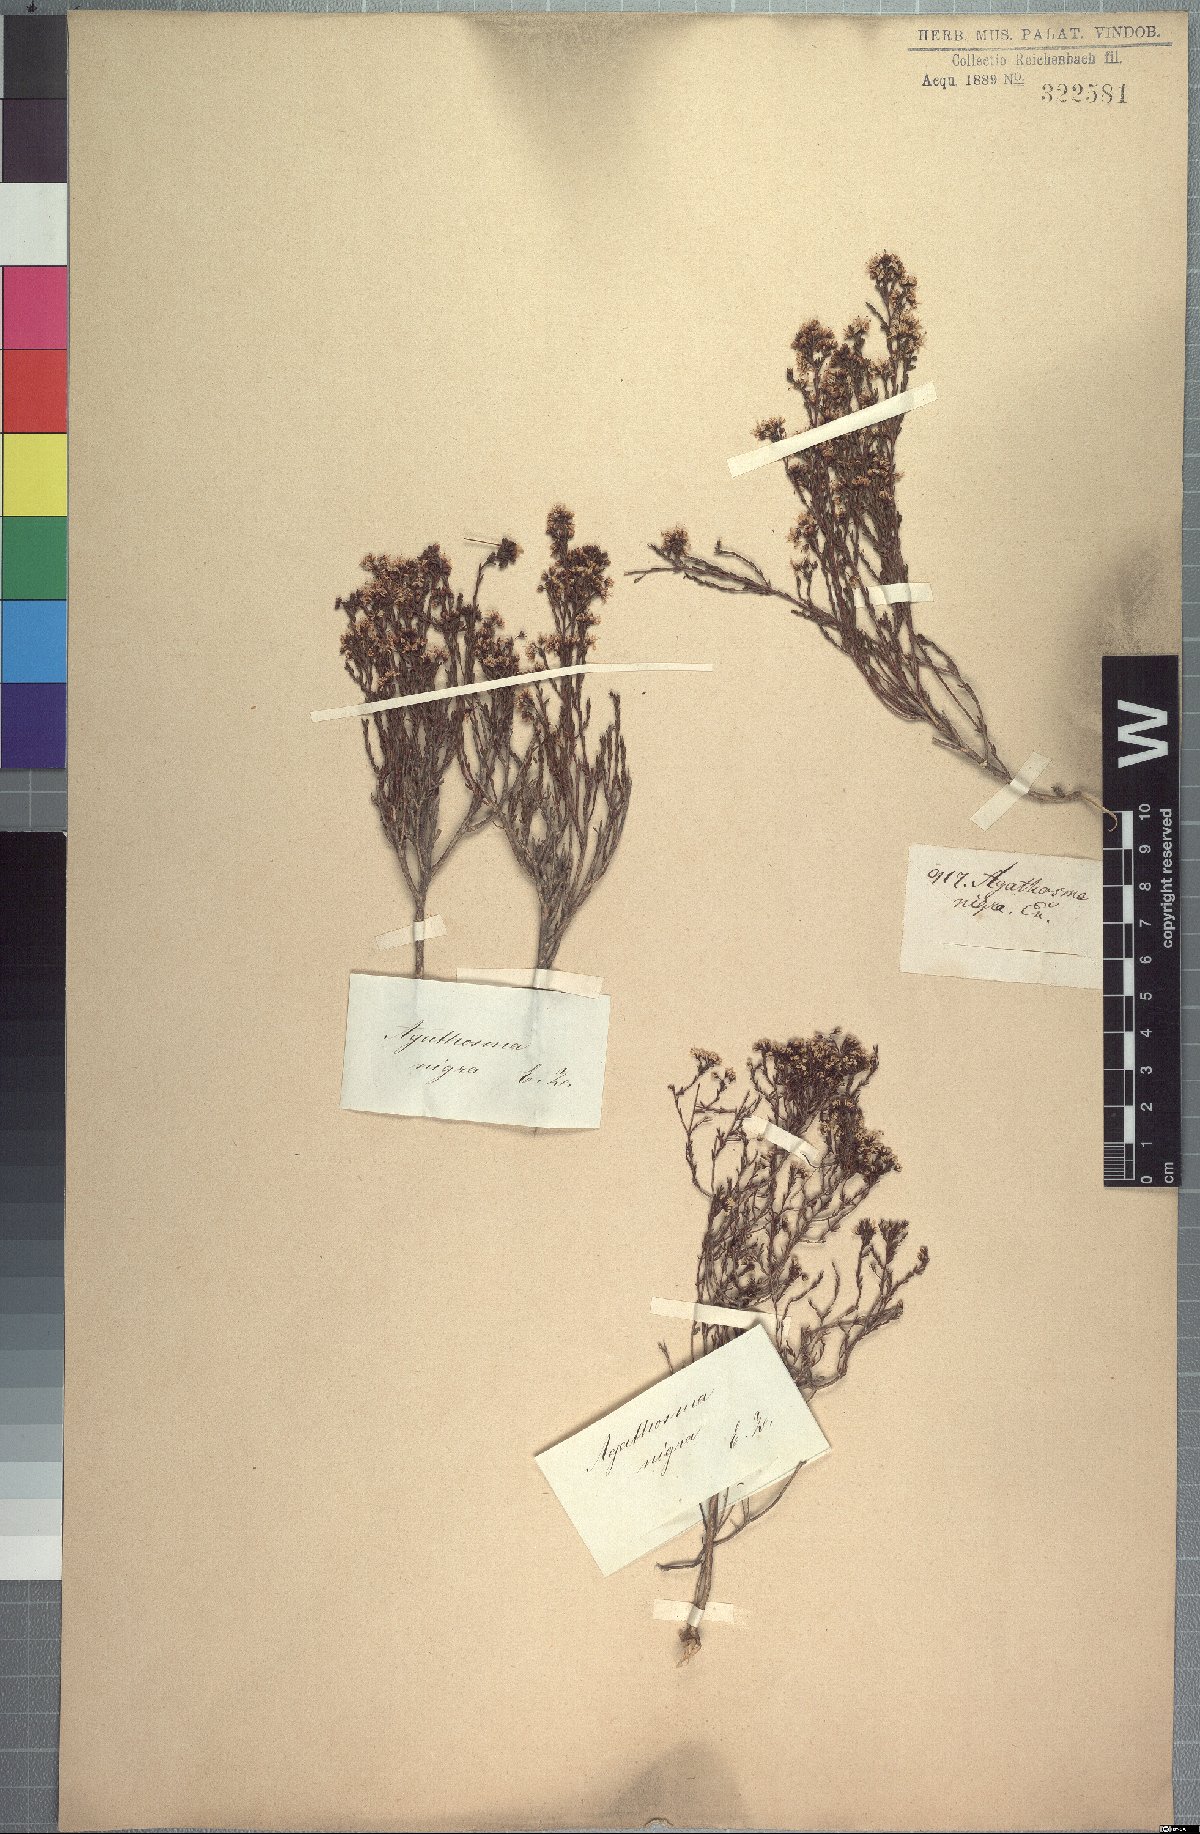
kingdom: Plantae
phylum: Tracheophyta
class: Magnoliopsida
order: Sapindales
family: Rutaceae
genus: Agathosma
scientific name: Agathosma capensis
